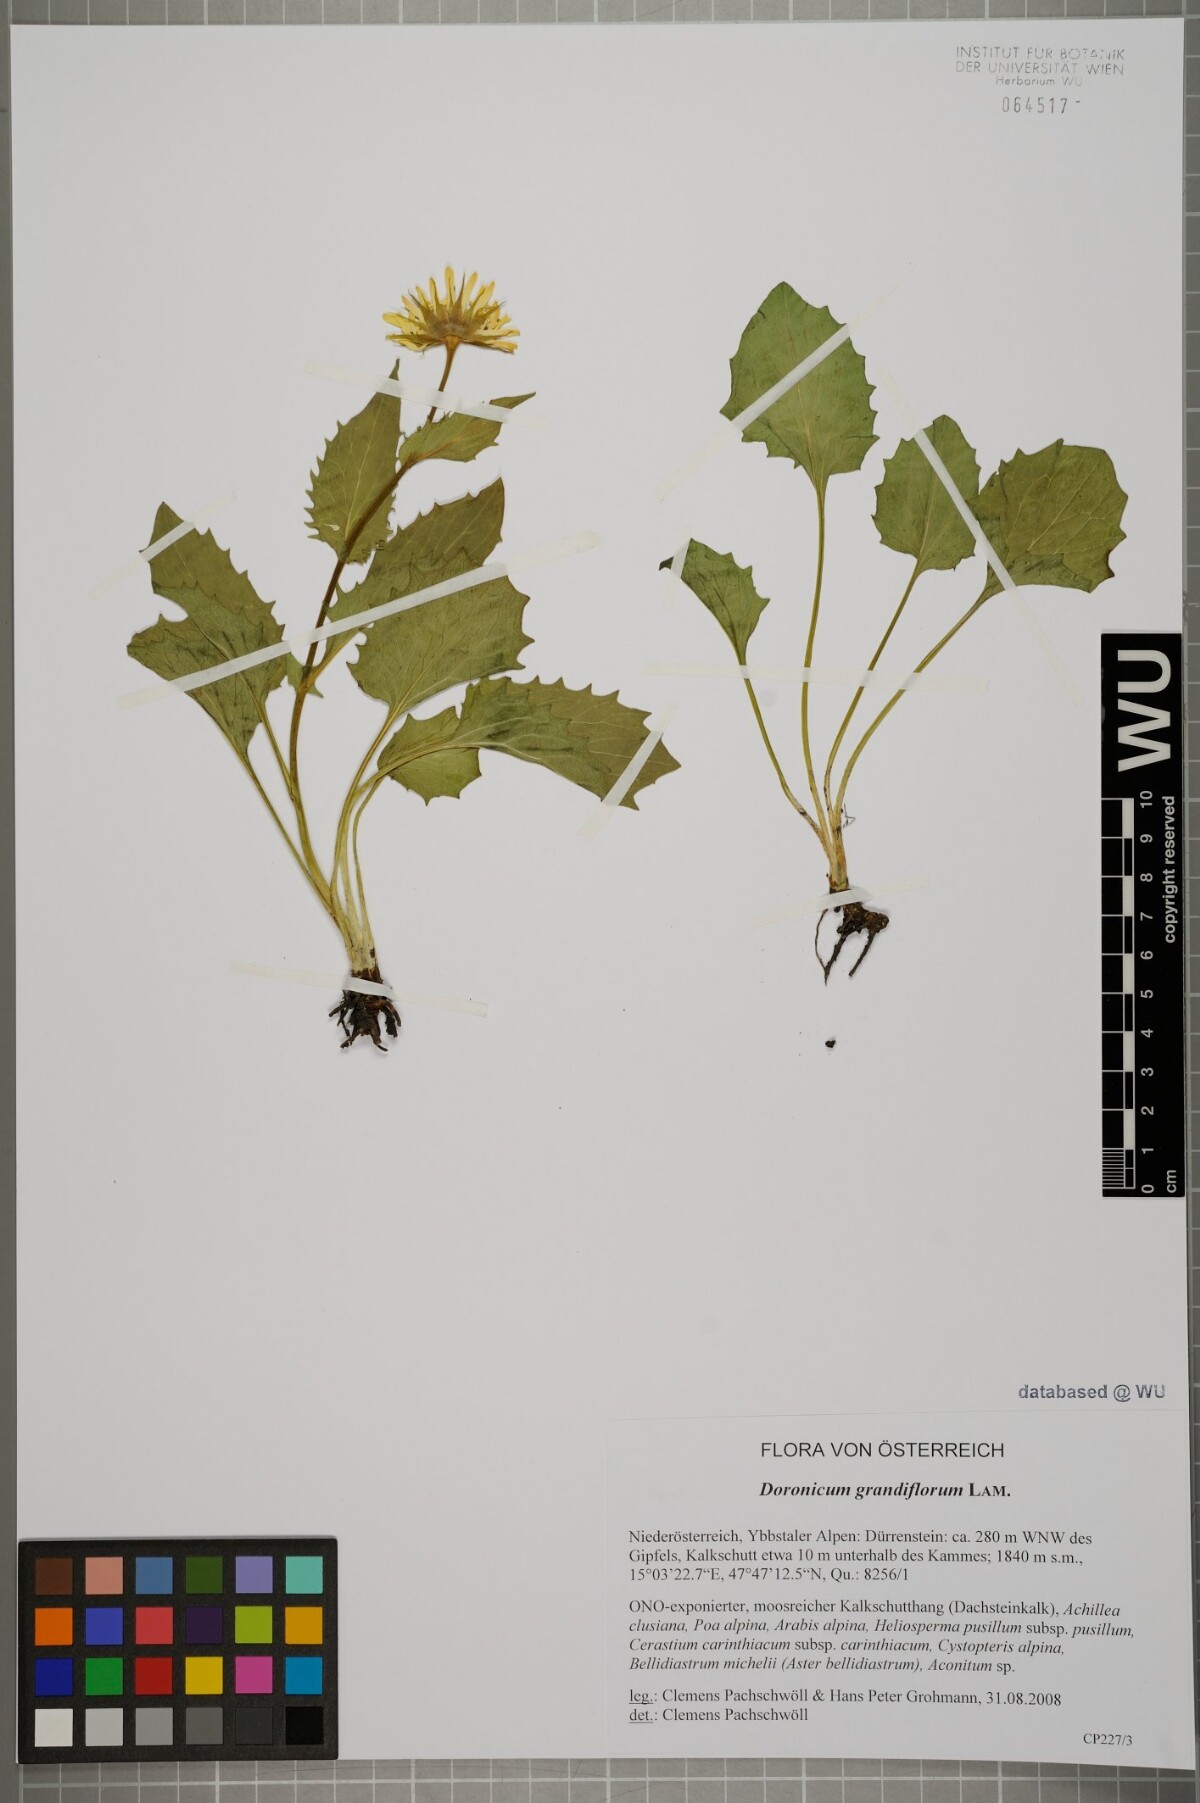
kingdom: Plantae
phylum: Tracheophyta
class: Magnoliopsida
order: Asterales
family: Asteraceae
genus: Doronicum
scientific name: Doronicum grandiflorum
